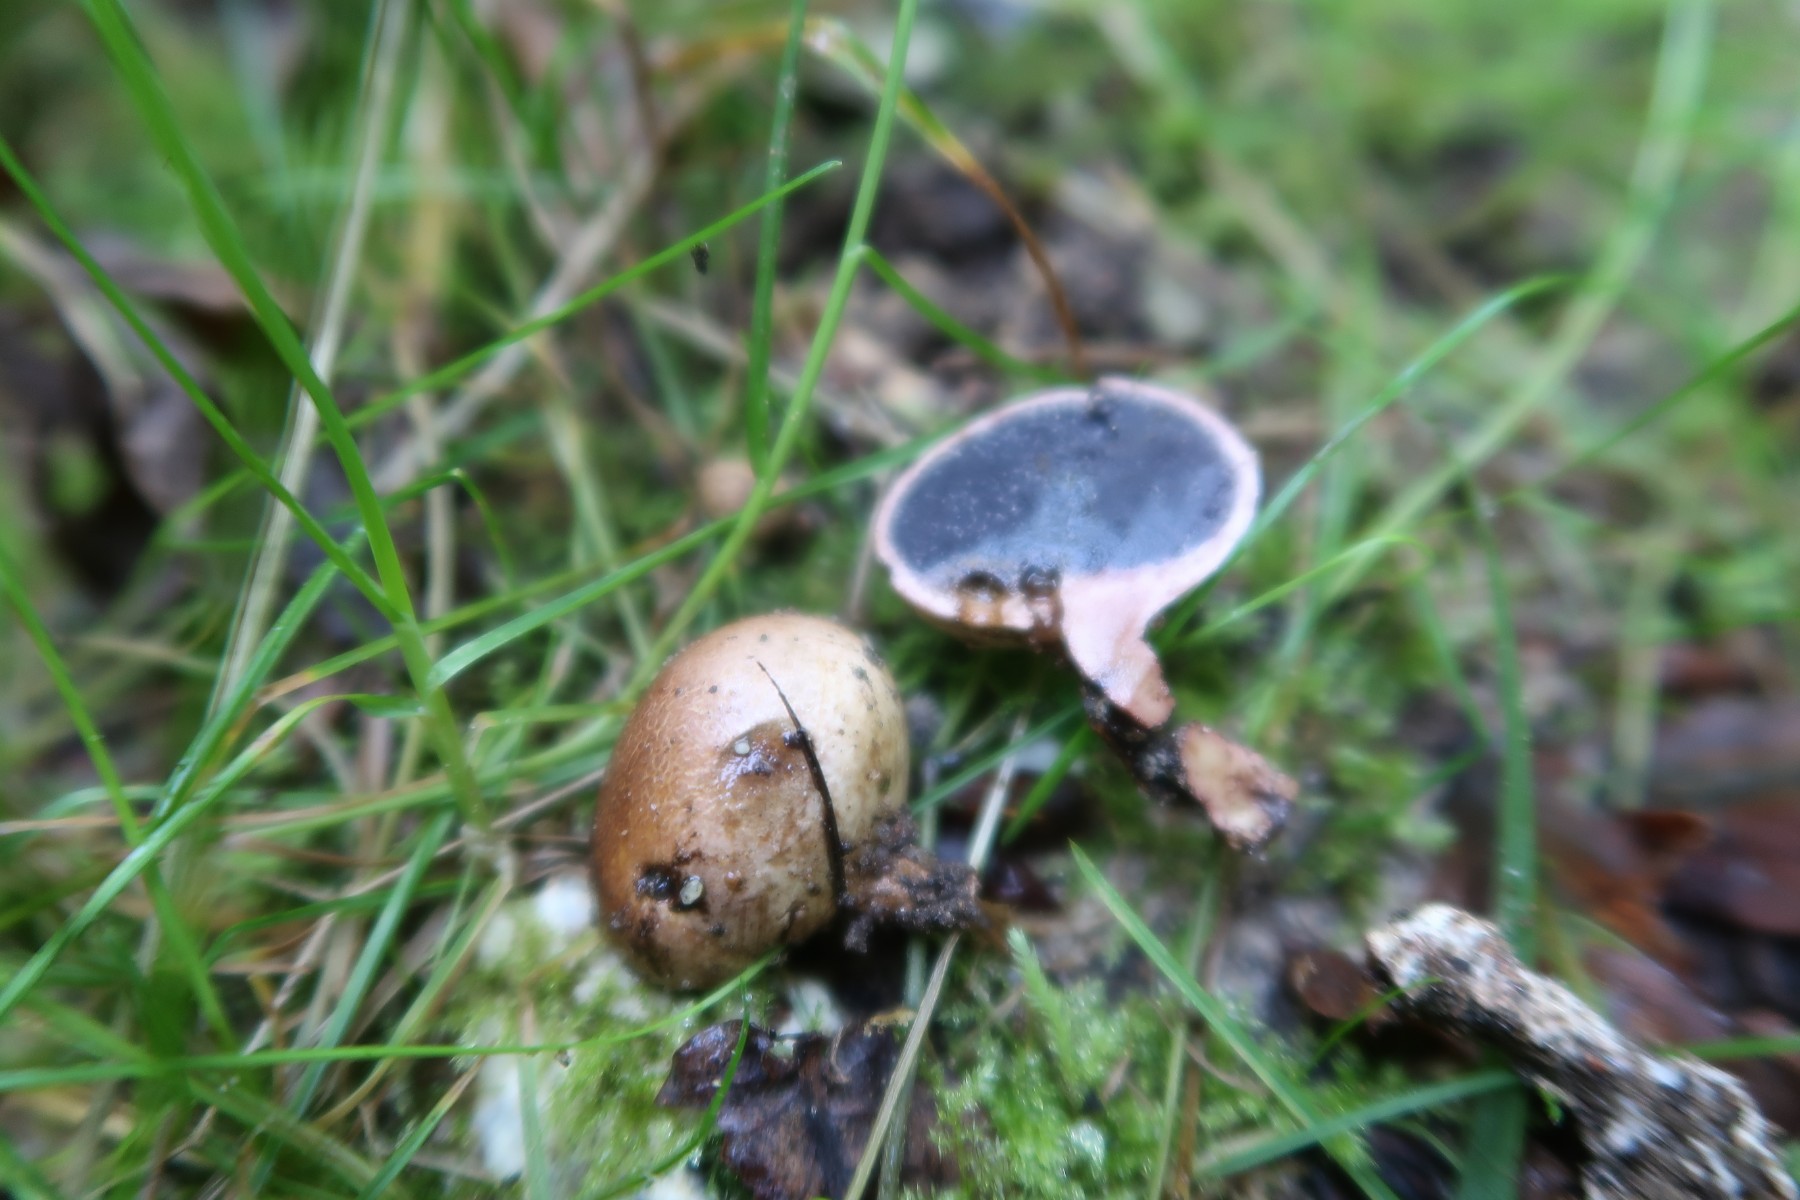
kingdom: Fungi
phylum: Basidiomycota
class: Agaricomycetes
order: Boletales
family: Sclerodermataceae
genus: Scleroderma
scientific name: Scleroderma verrucosum
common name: stilket bruskbold
